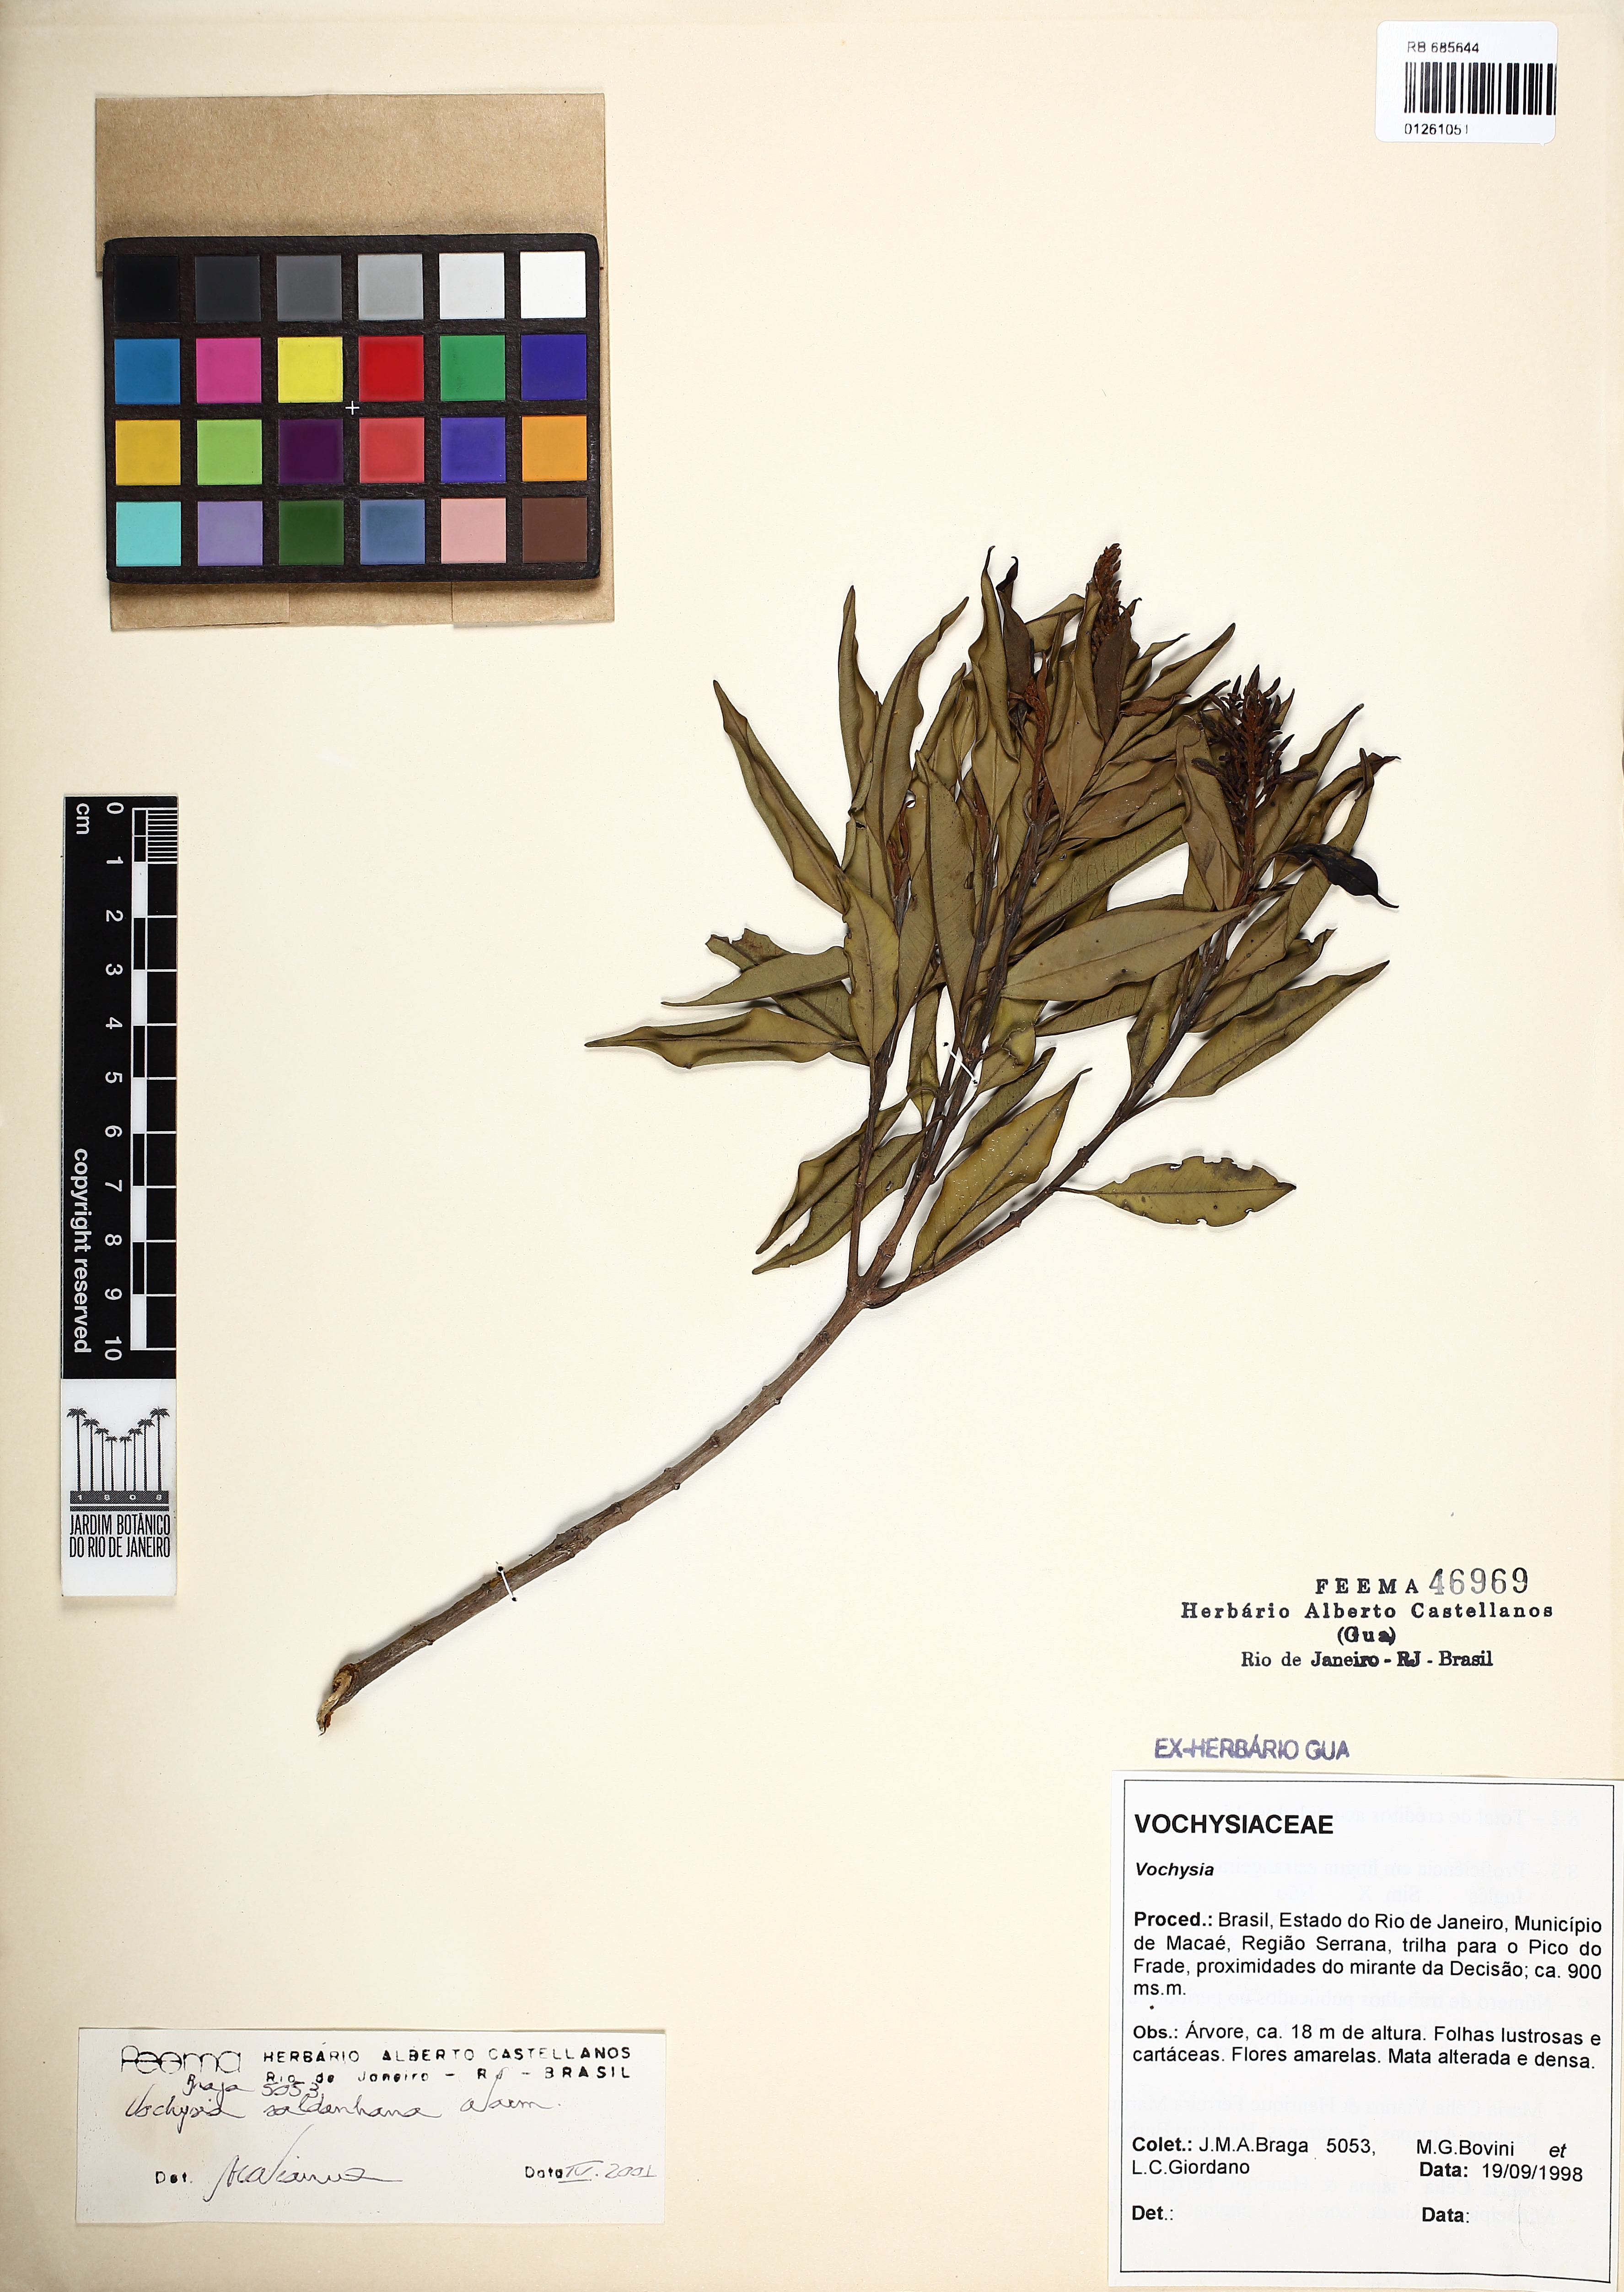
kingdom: Plantae
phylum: Tracheophyta
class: Magnoliopsida
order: Myrtales
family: Vochysiaceae
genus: Vochysia
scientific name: Vochysia saldanhana
